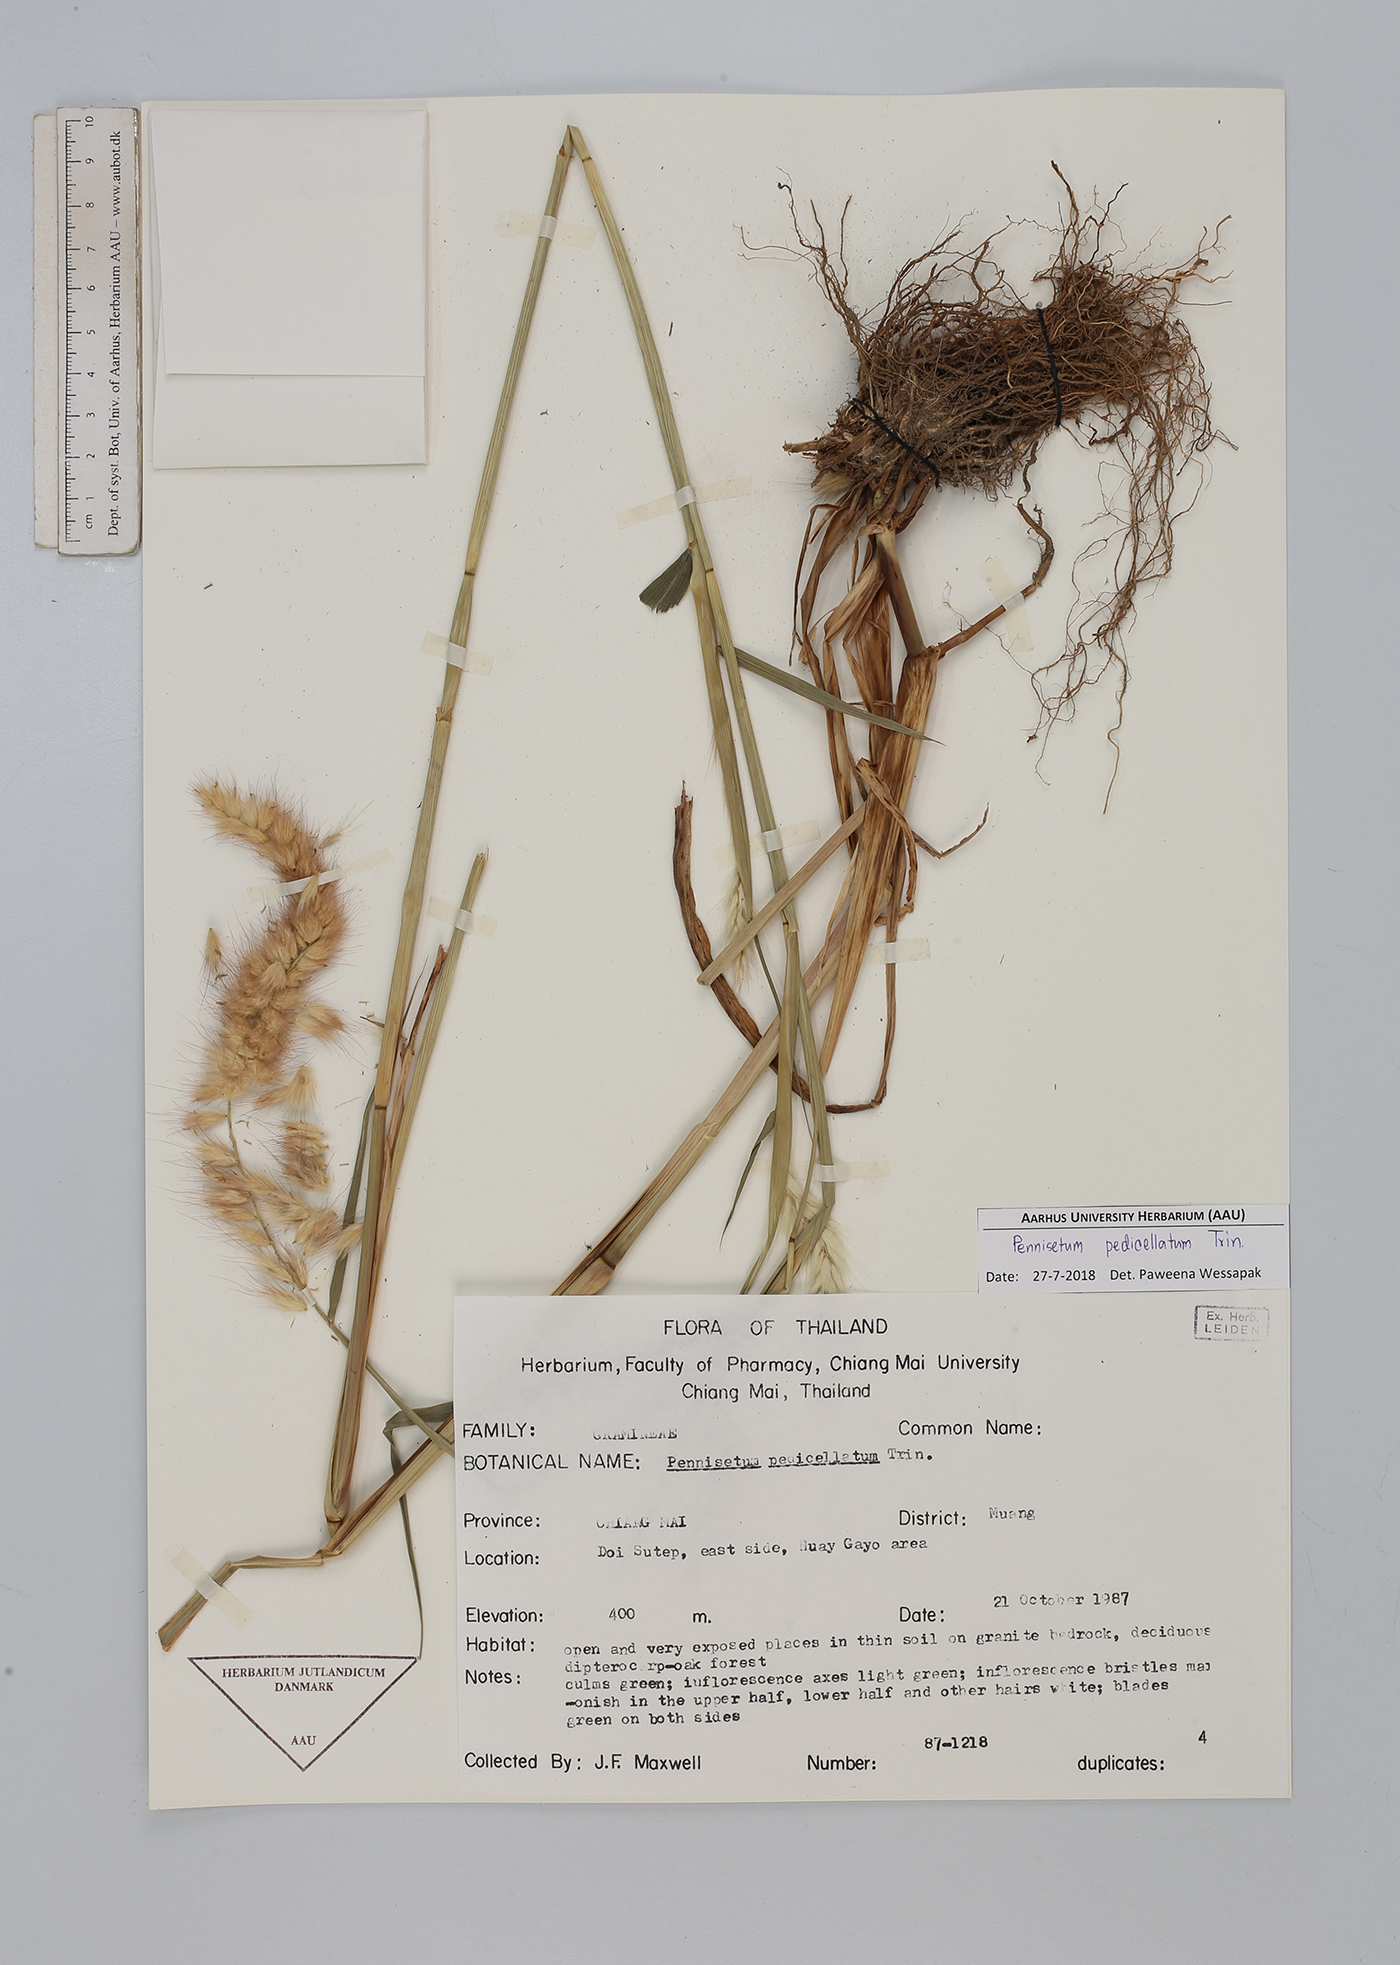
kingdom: Plantae
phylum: Tracheophyta
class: Liliopsida
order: Poales
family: Poaceae
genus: Cenchrus
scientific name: Cenchrus pedicellatus
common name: Hairy fountain grass
